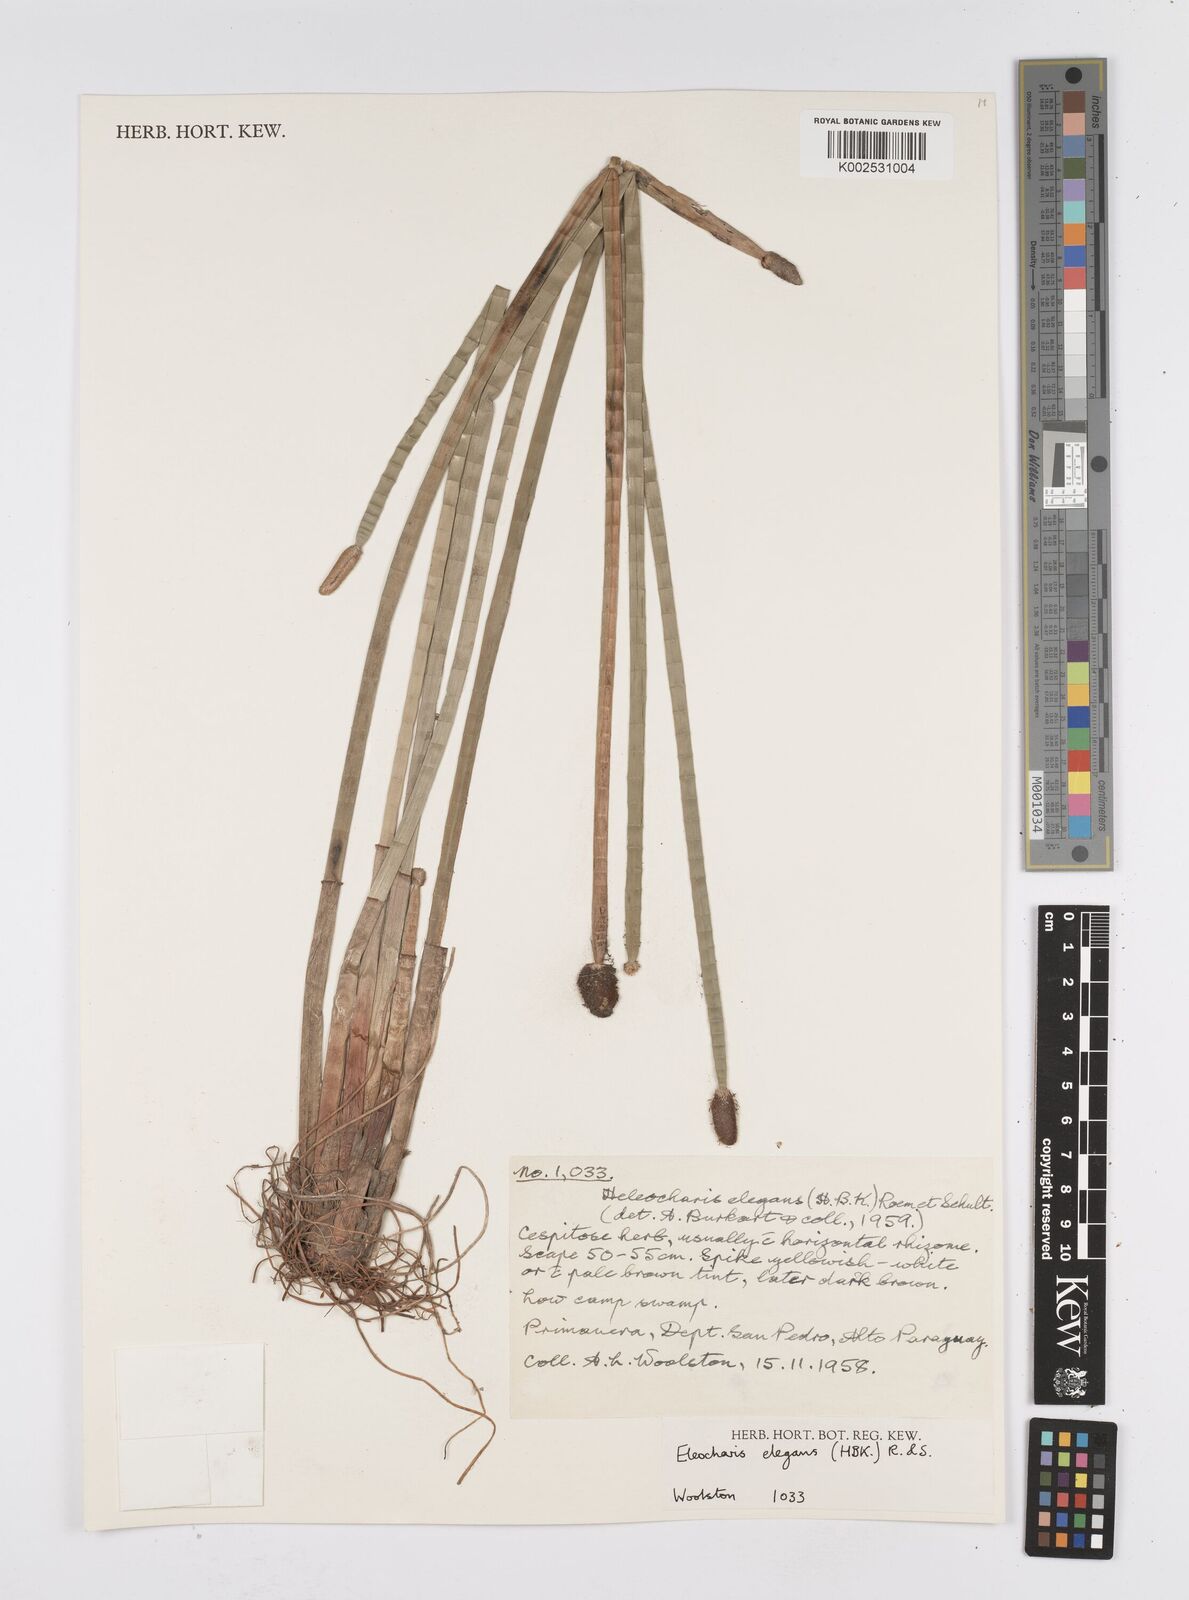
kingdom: Plantae
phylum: Tracheophyta
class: Liliopsida
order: Poales
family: Cyperaceae
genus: Eleocharis
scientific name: Eleocharis elegans
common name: Elegant spike-rush
